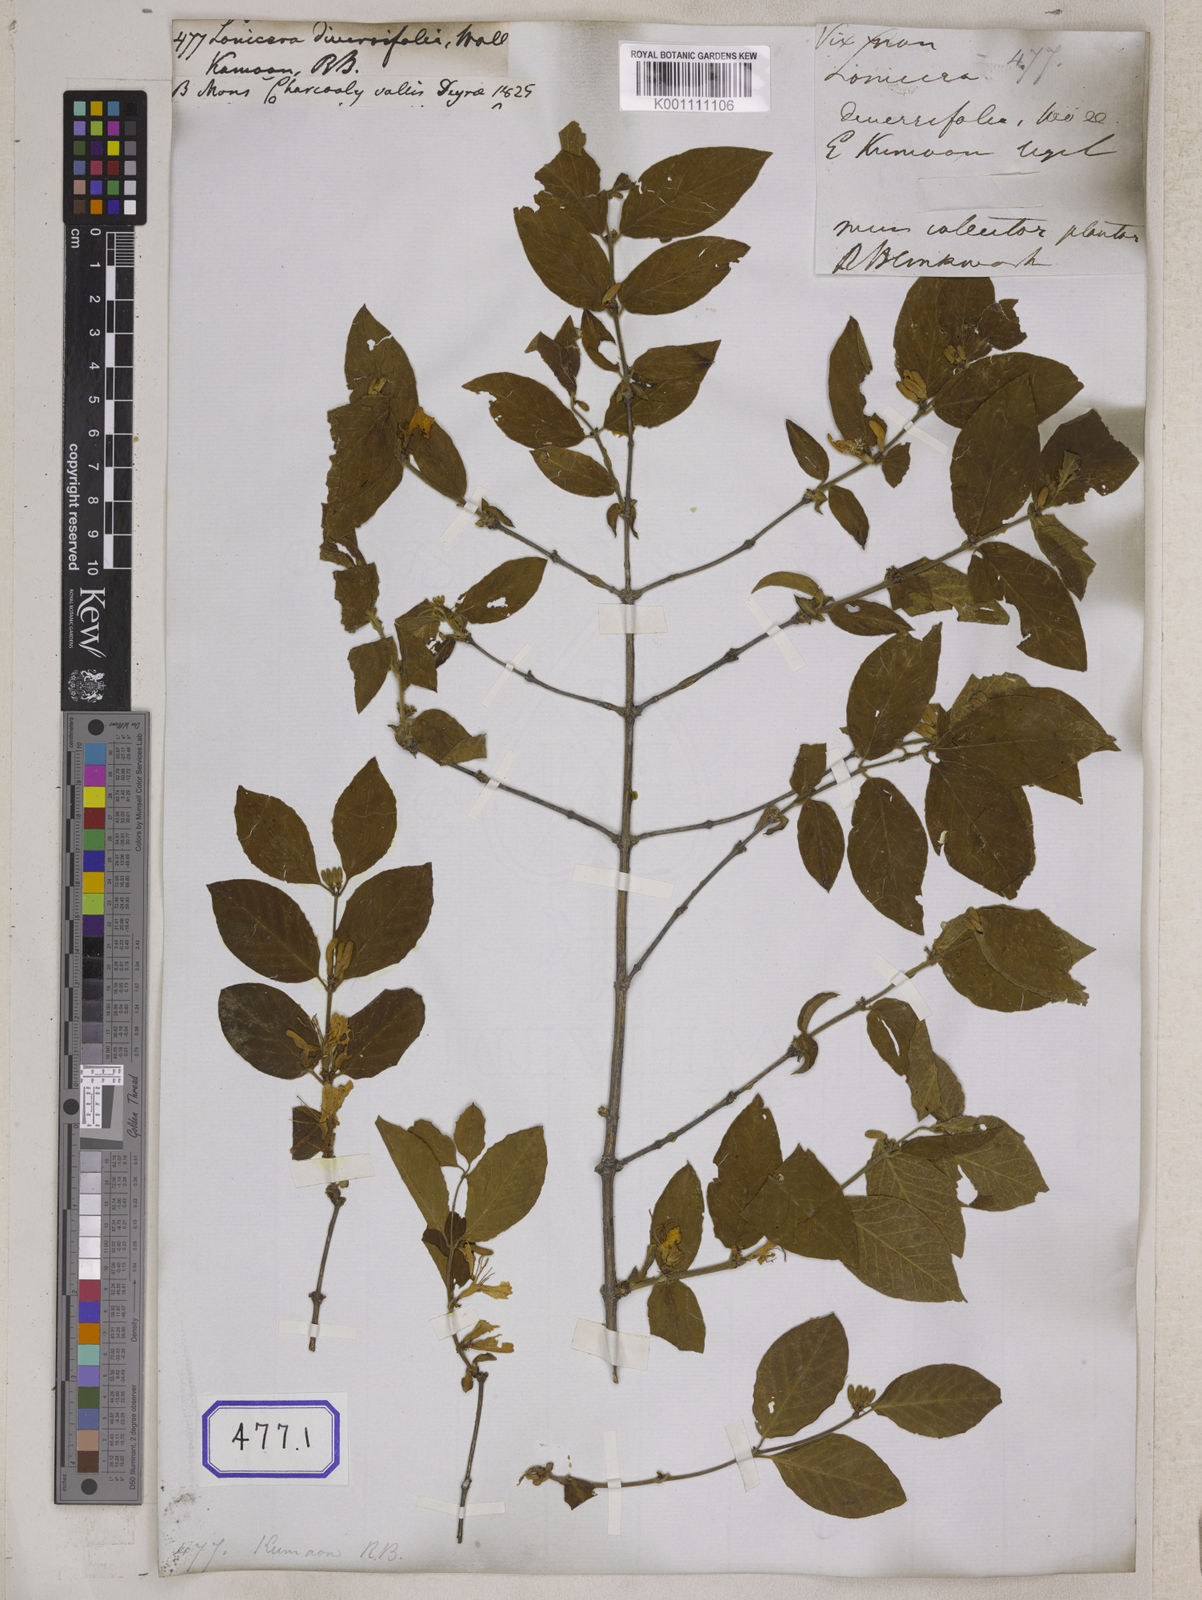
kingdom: Plantae
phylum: Tracheophyta
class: Magnoliopsida
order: Dipsacales
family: Caprifoliaceae
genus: Lonicera
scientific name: Lonicera quinquelocularis
